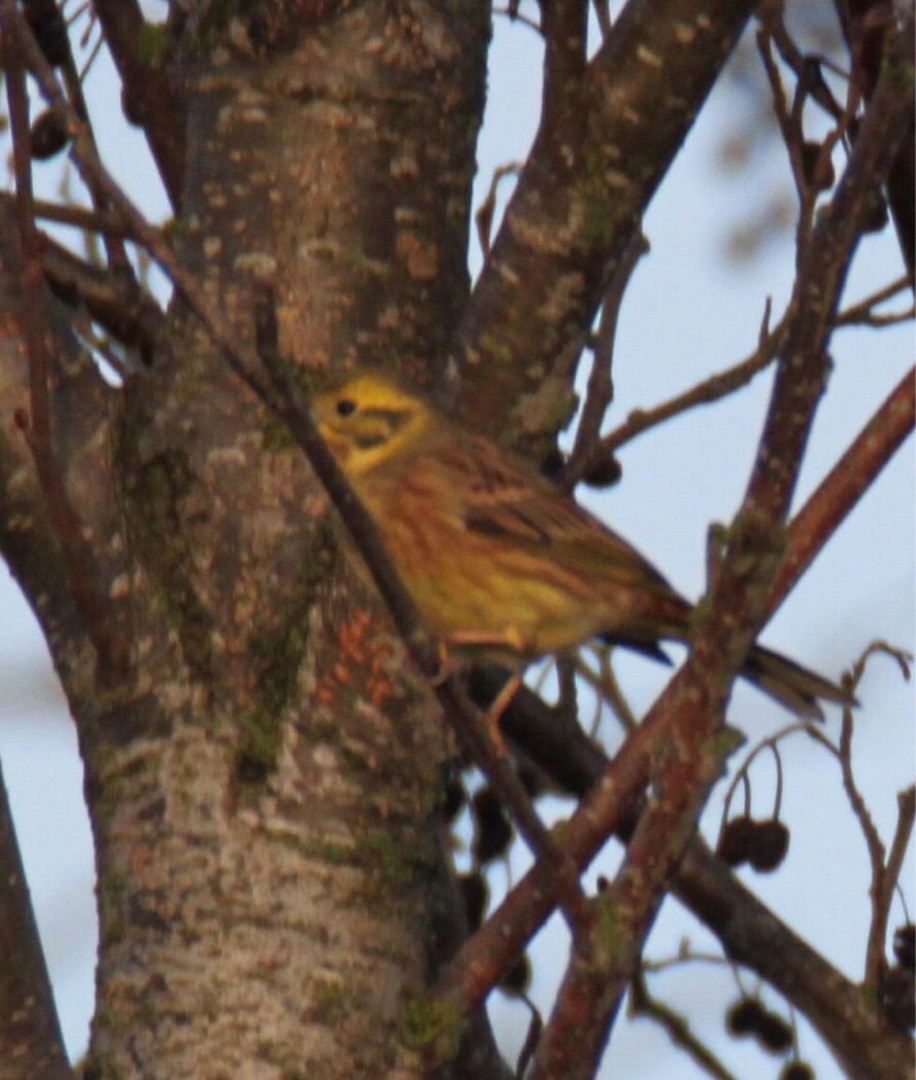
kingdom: Animalia
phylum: Chordata
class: Aves
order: Passeriformes
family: Emberizidae
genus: Emberiza
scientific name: Emberiza citrinella
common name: Gulspurv
